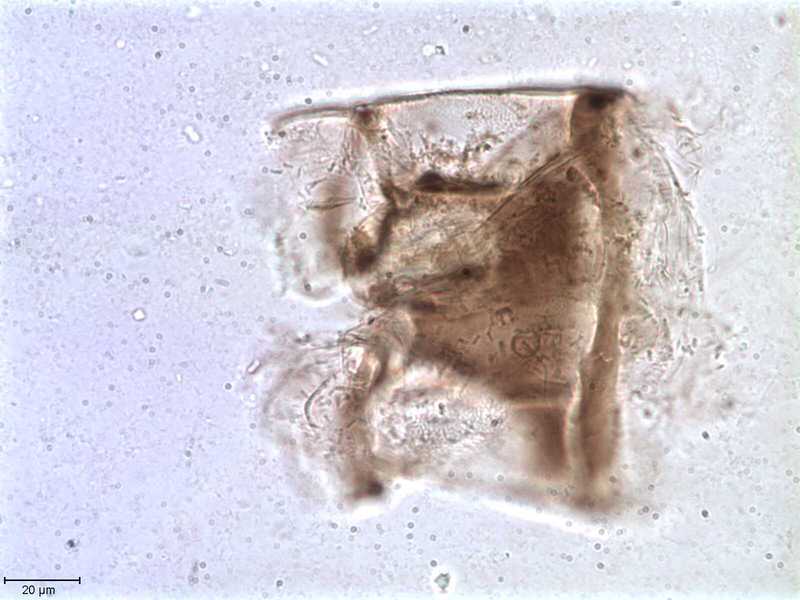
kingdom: Animalia
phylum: Arthropoda
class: Arachnida
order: Mesostigmata
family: Halarachnidae
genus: Orthohalarachne
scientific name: Orthohalarachne letalis
